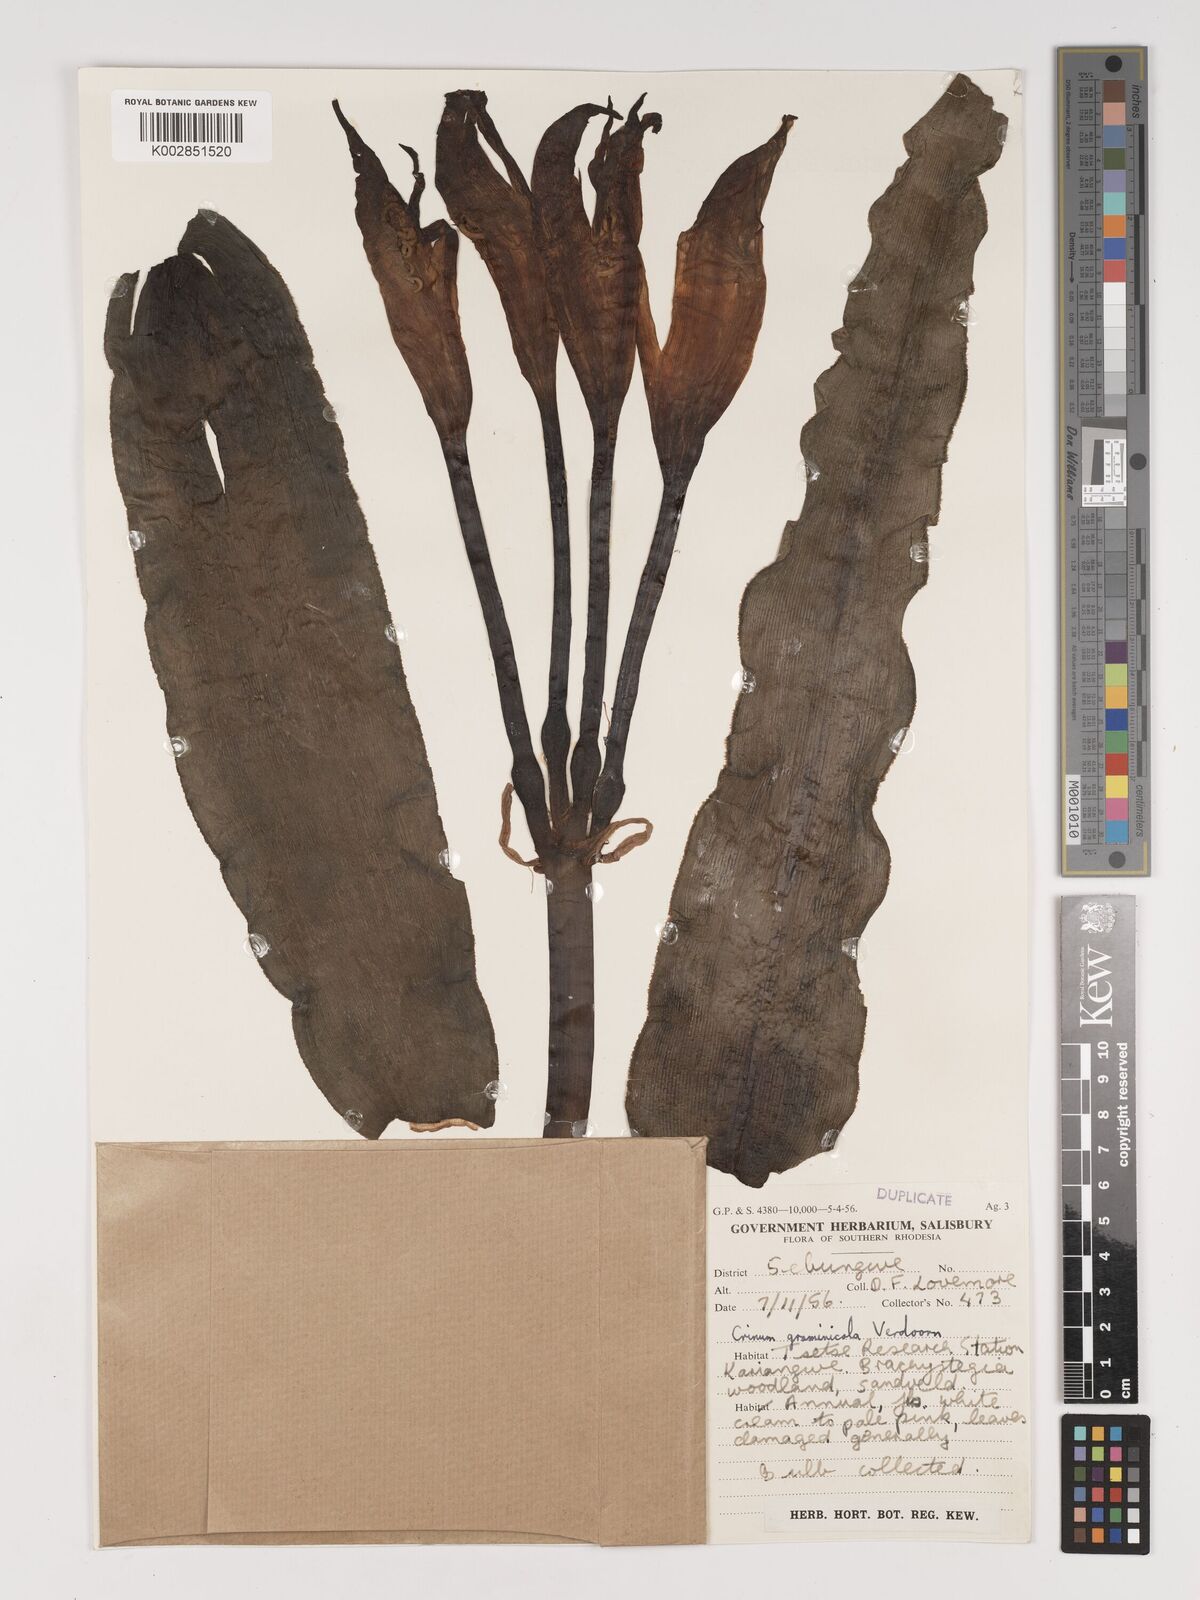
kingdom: Plantae
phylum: Tracheophyta
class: Liliopsida
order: Asparagales
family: Amaryllidaceae
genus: Crinum
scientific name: Crinum crassicaule
